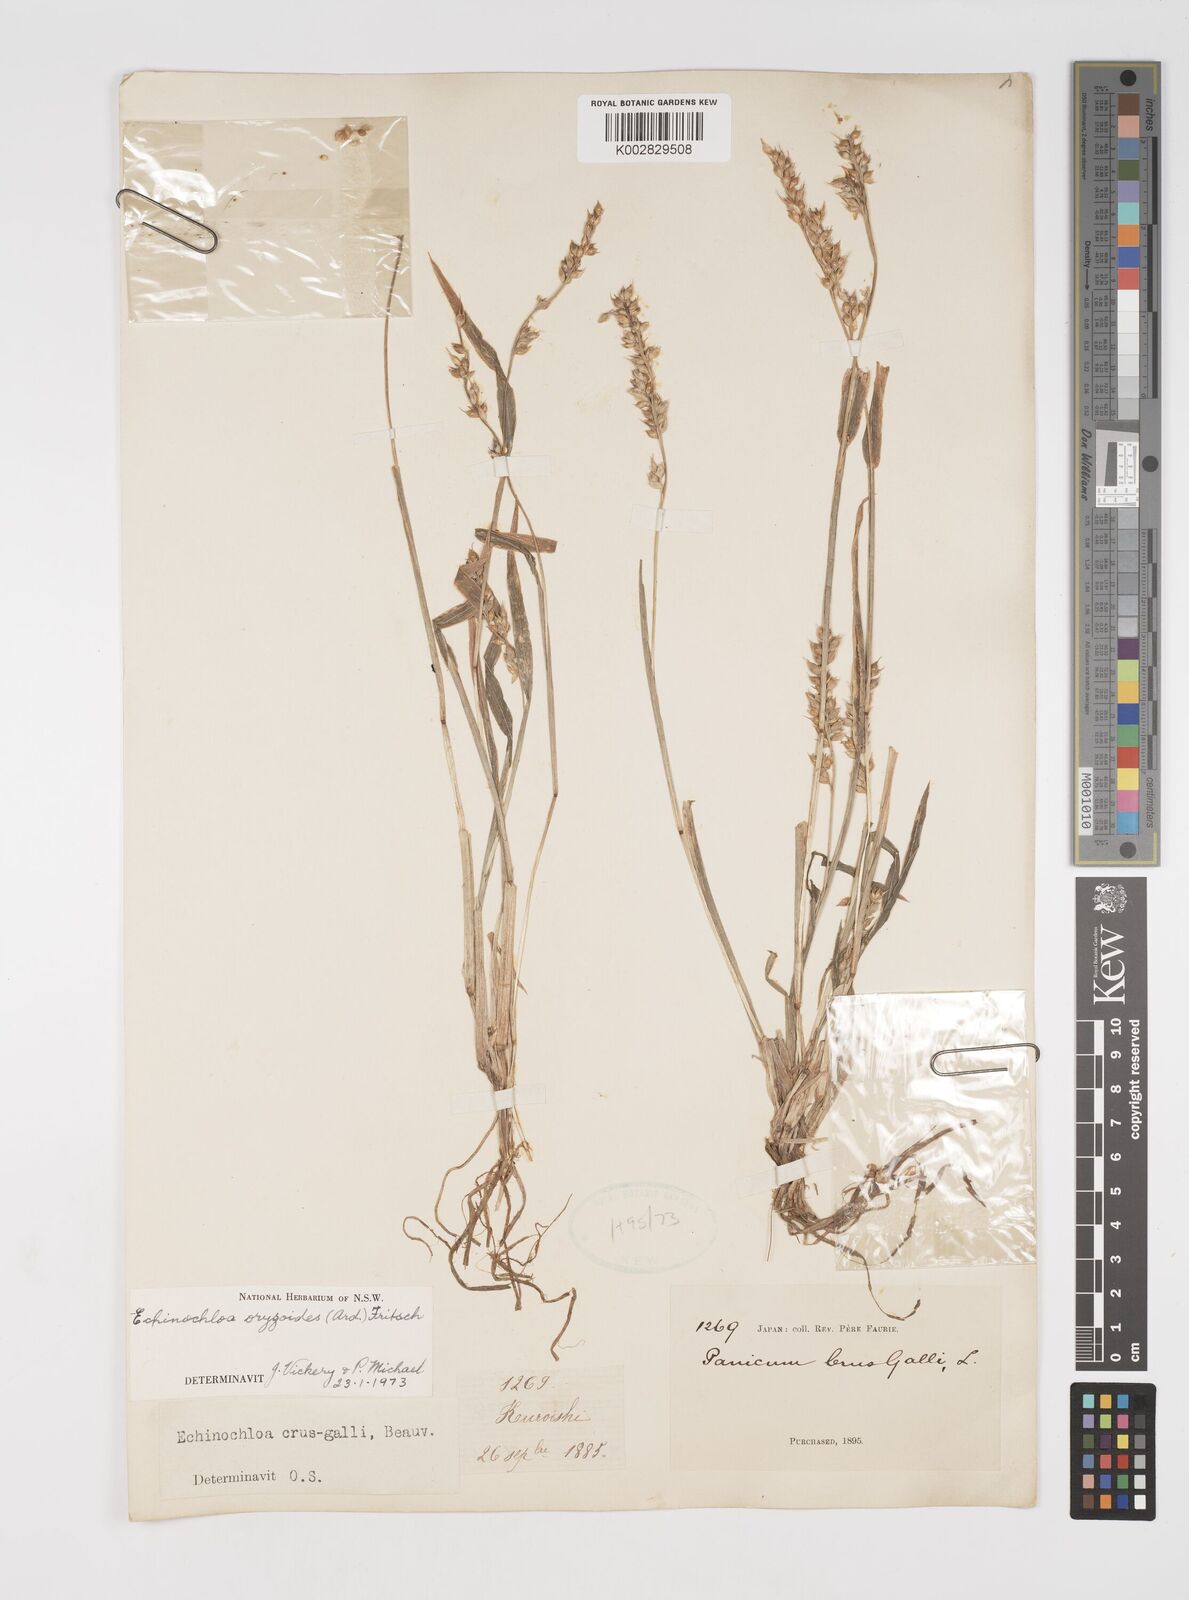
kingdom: Plantae
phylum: Tracheophyta
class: Liliopsida
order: Poales
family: Poaceae
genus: Echinochloa
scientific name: Echinochloa oryzoides
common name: Early water grass
